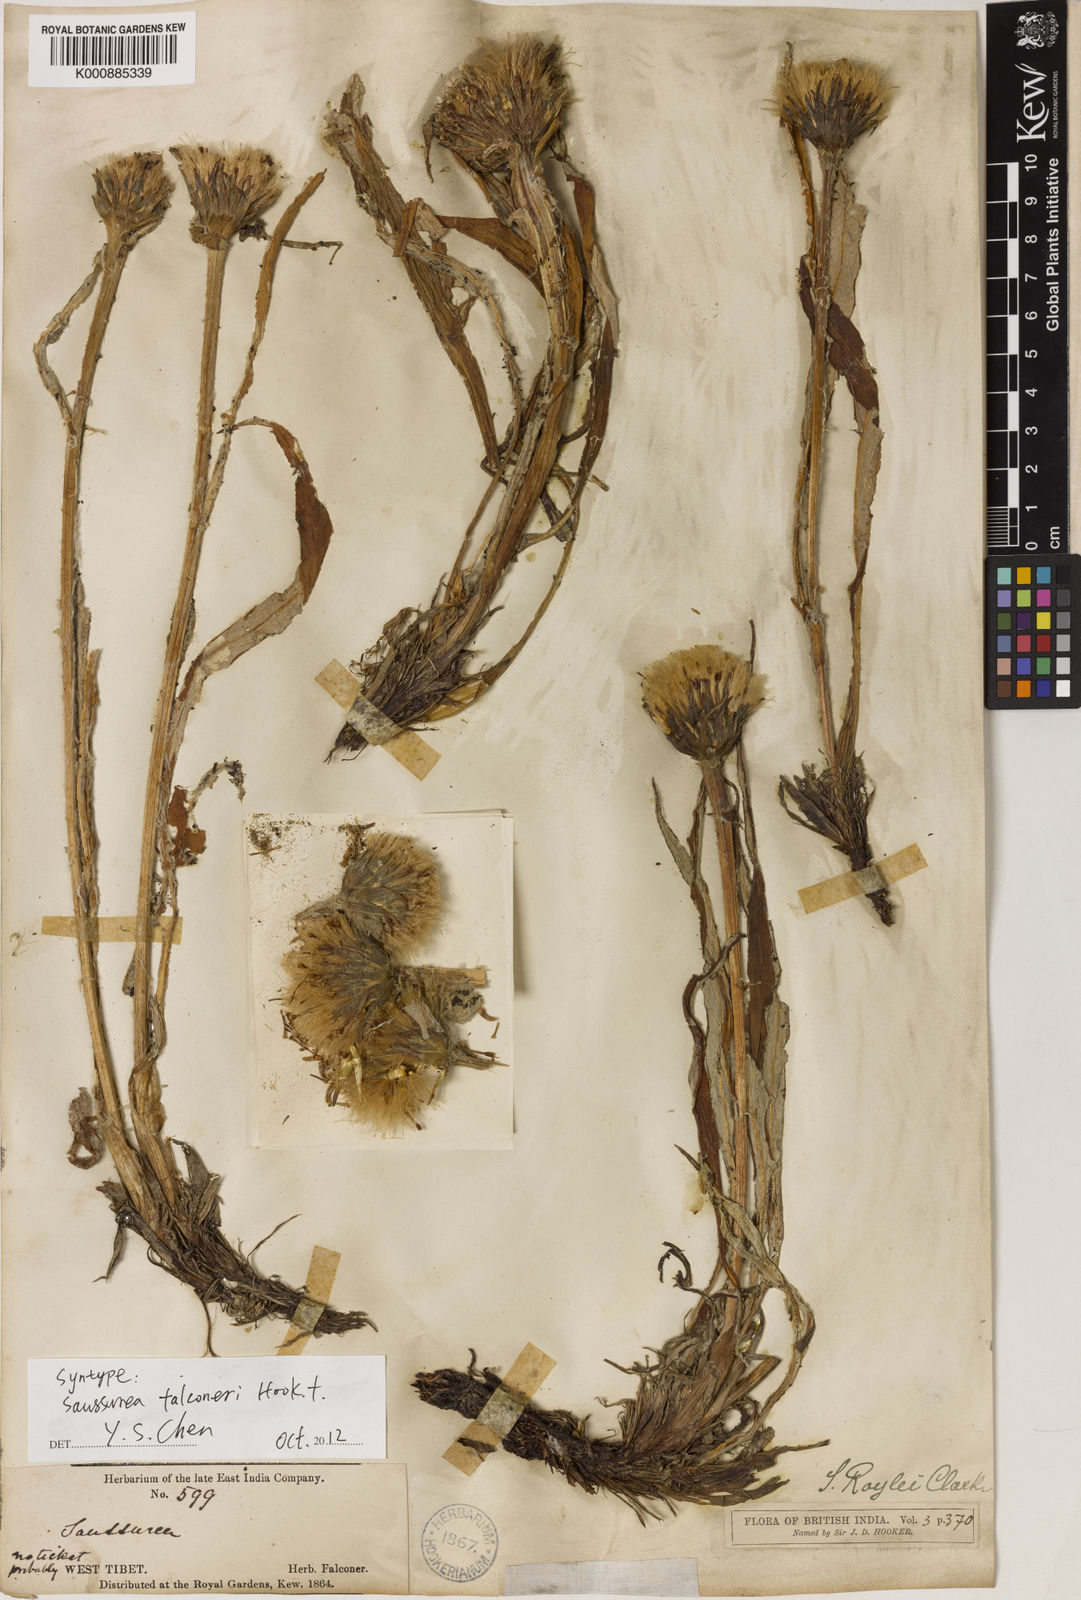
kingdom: Plantae
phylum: Tracheophyta
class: Magnoliopsida
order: Asterales
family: Asteraceae
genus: Saussurea
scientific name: Saussurea roylei
